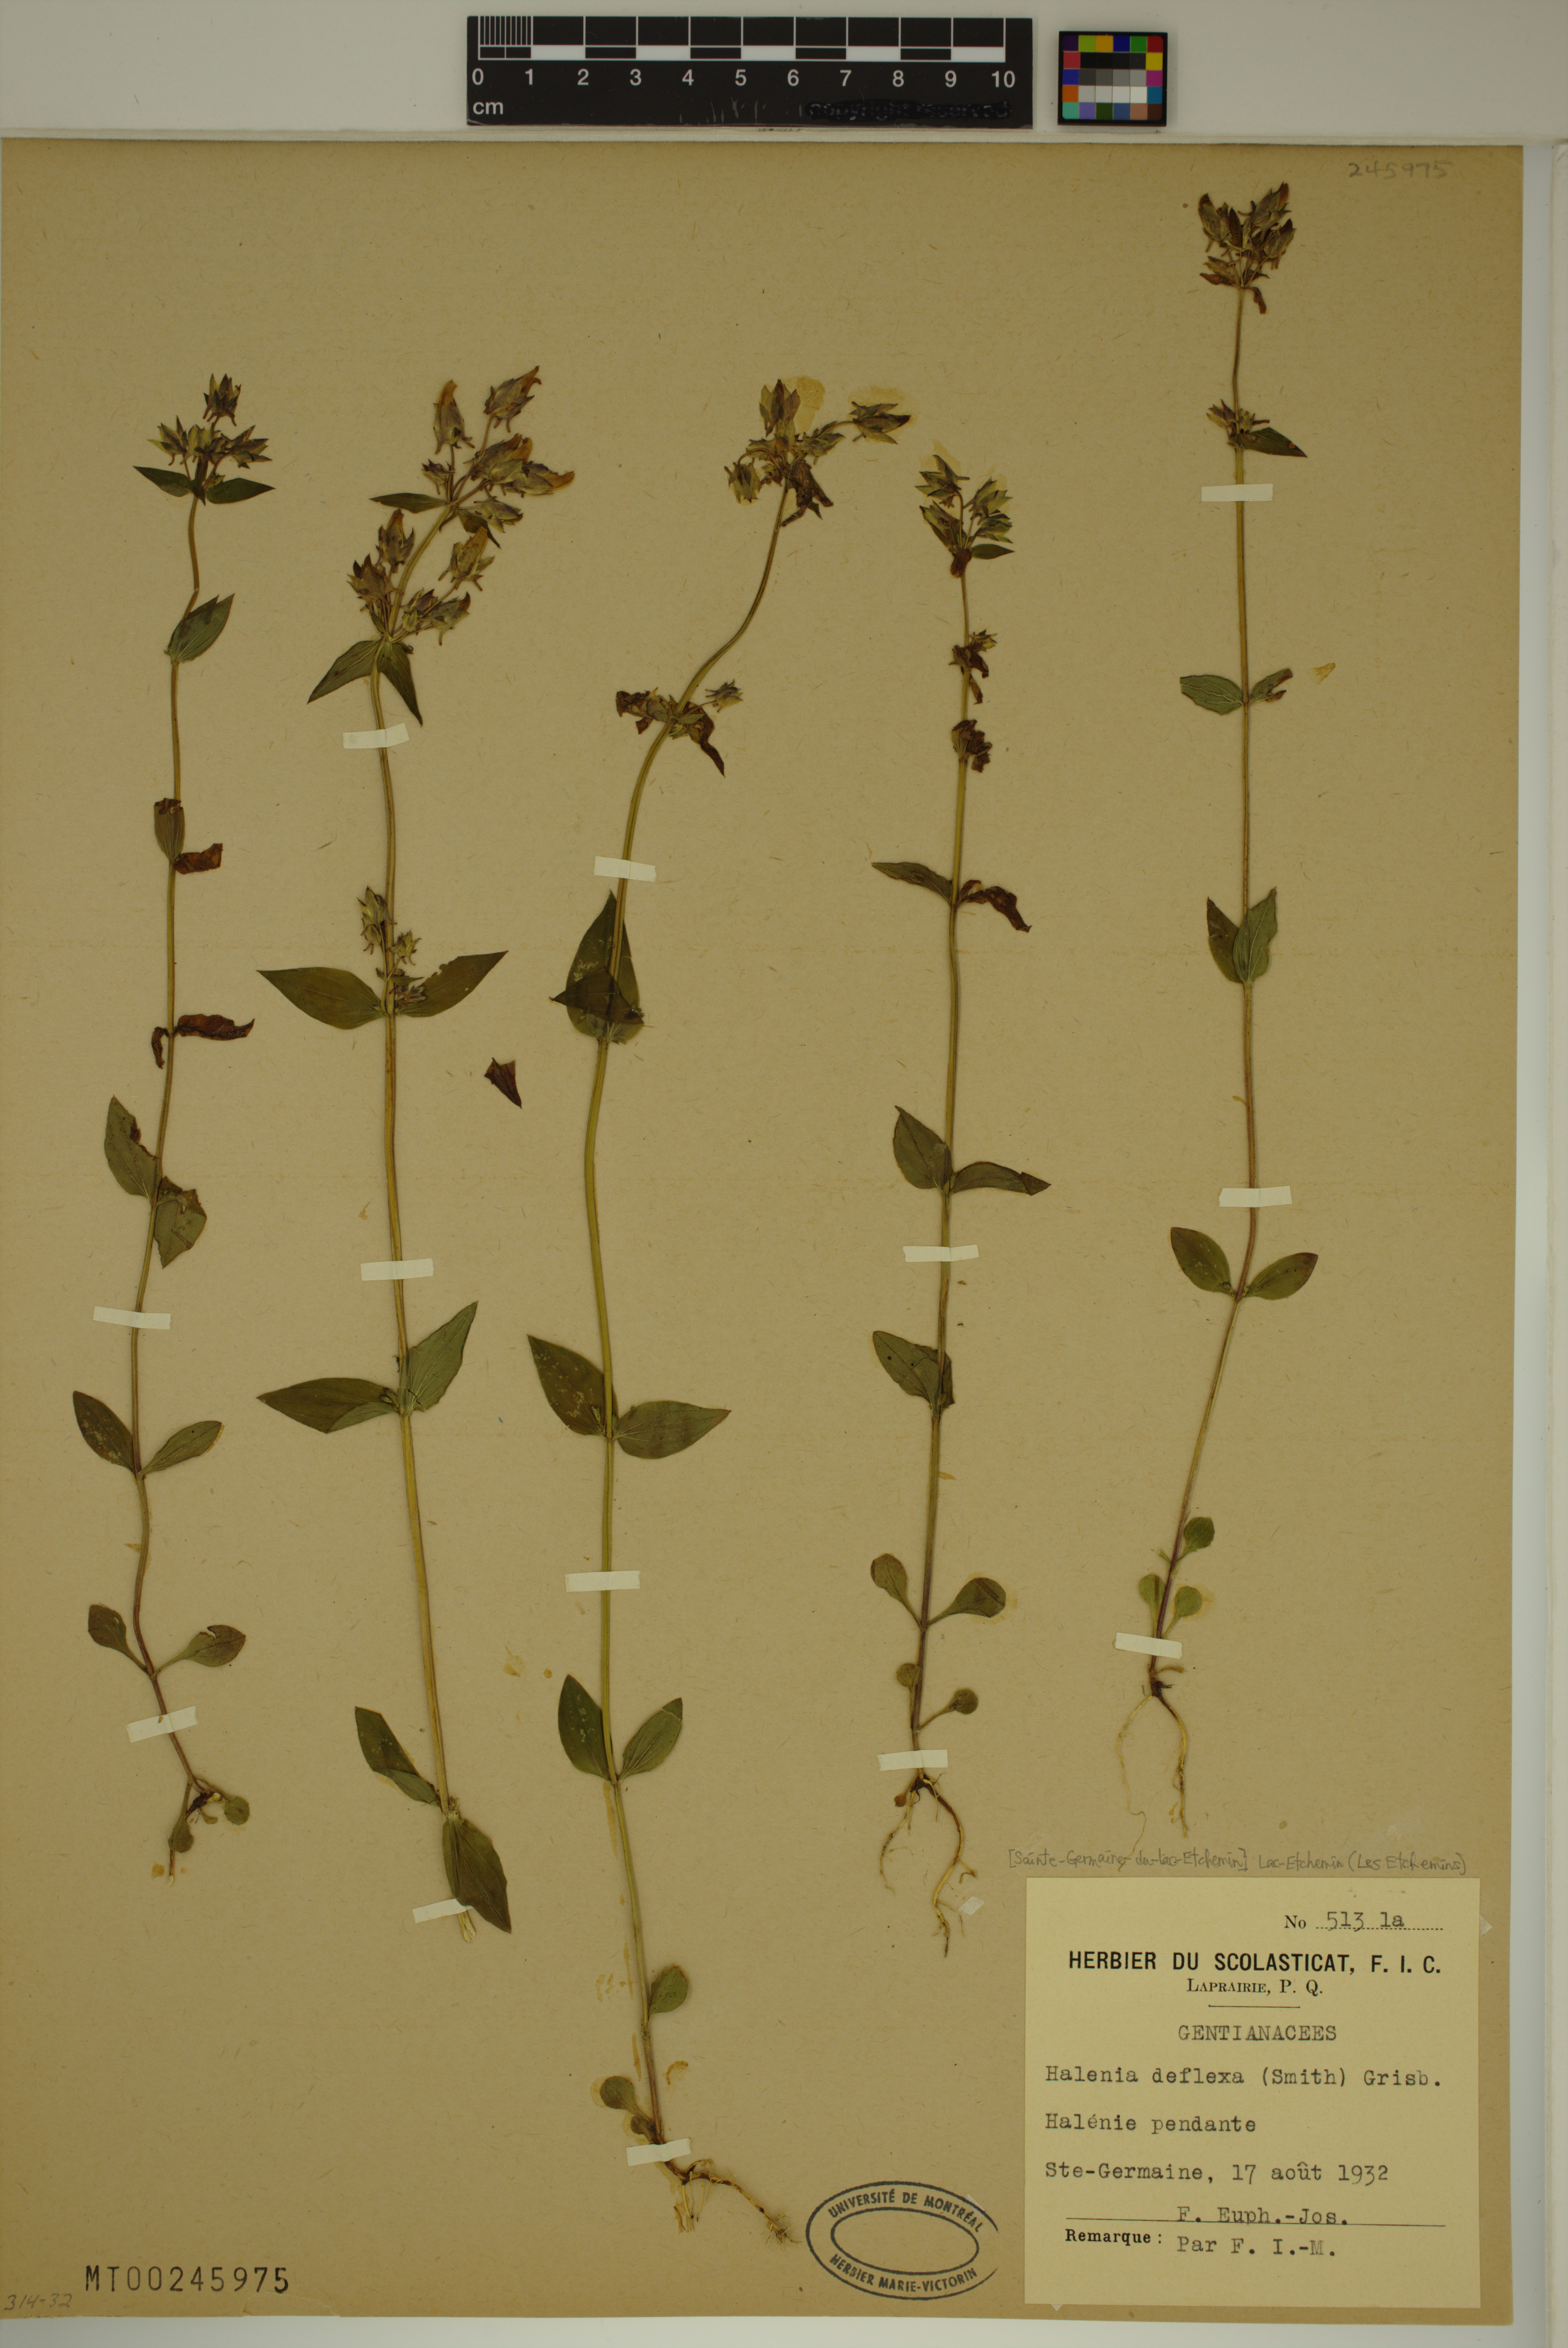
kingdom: Plantae
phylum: Tracheophyta
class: Magnoliopsida
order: Gentianales
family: Gentianaceae
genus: Halenia
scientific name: Halenia deflexa
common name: American spurred gentian
